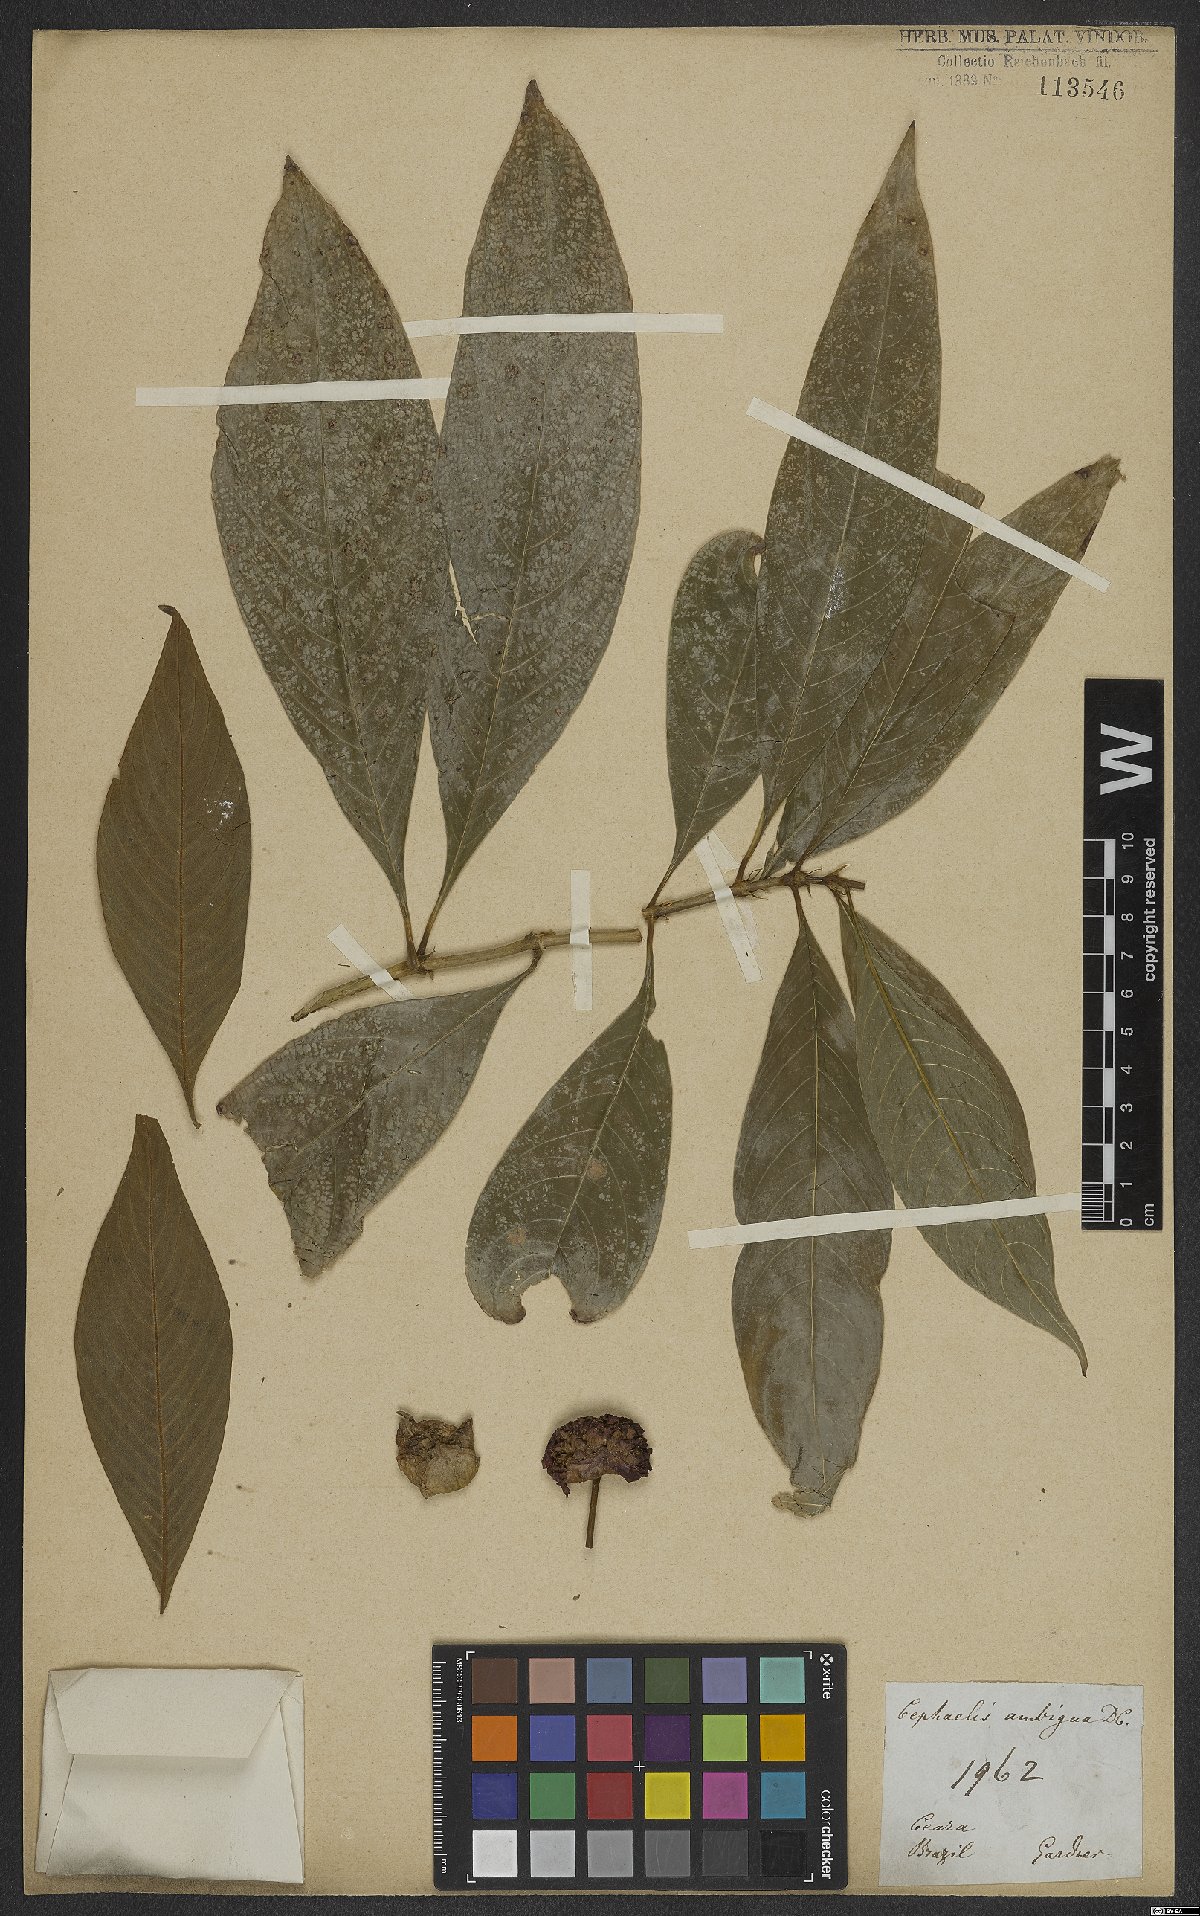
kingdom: Plantae
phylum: Tracheophyta
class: Magnoliopsida
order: Gentianales
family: Rubiaceae
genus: Psychotria
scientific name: Psychotria salzmanniana
